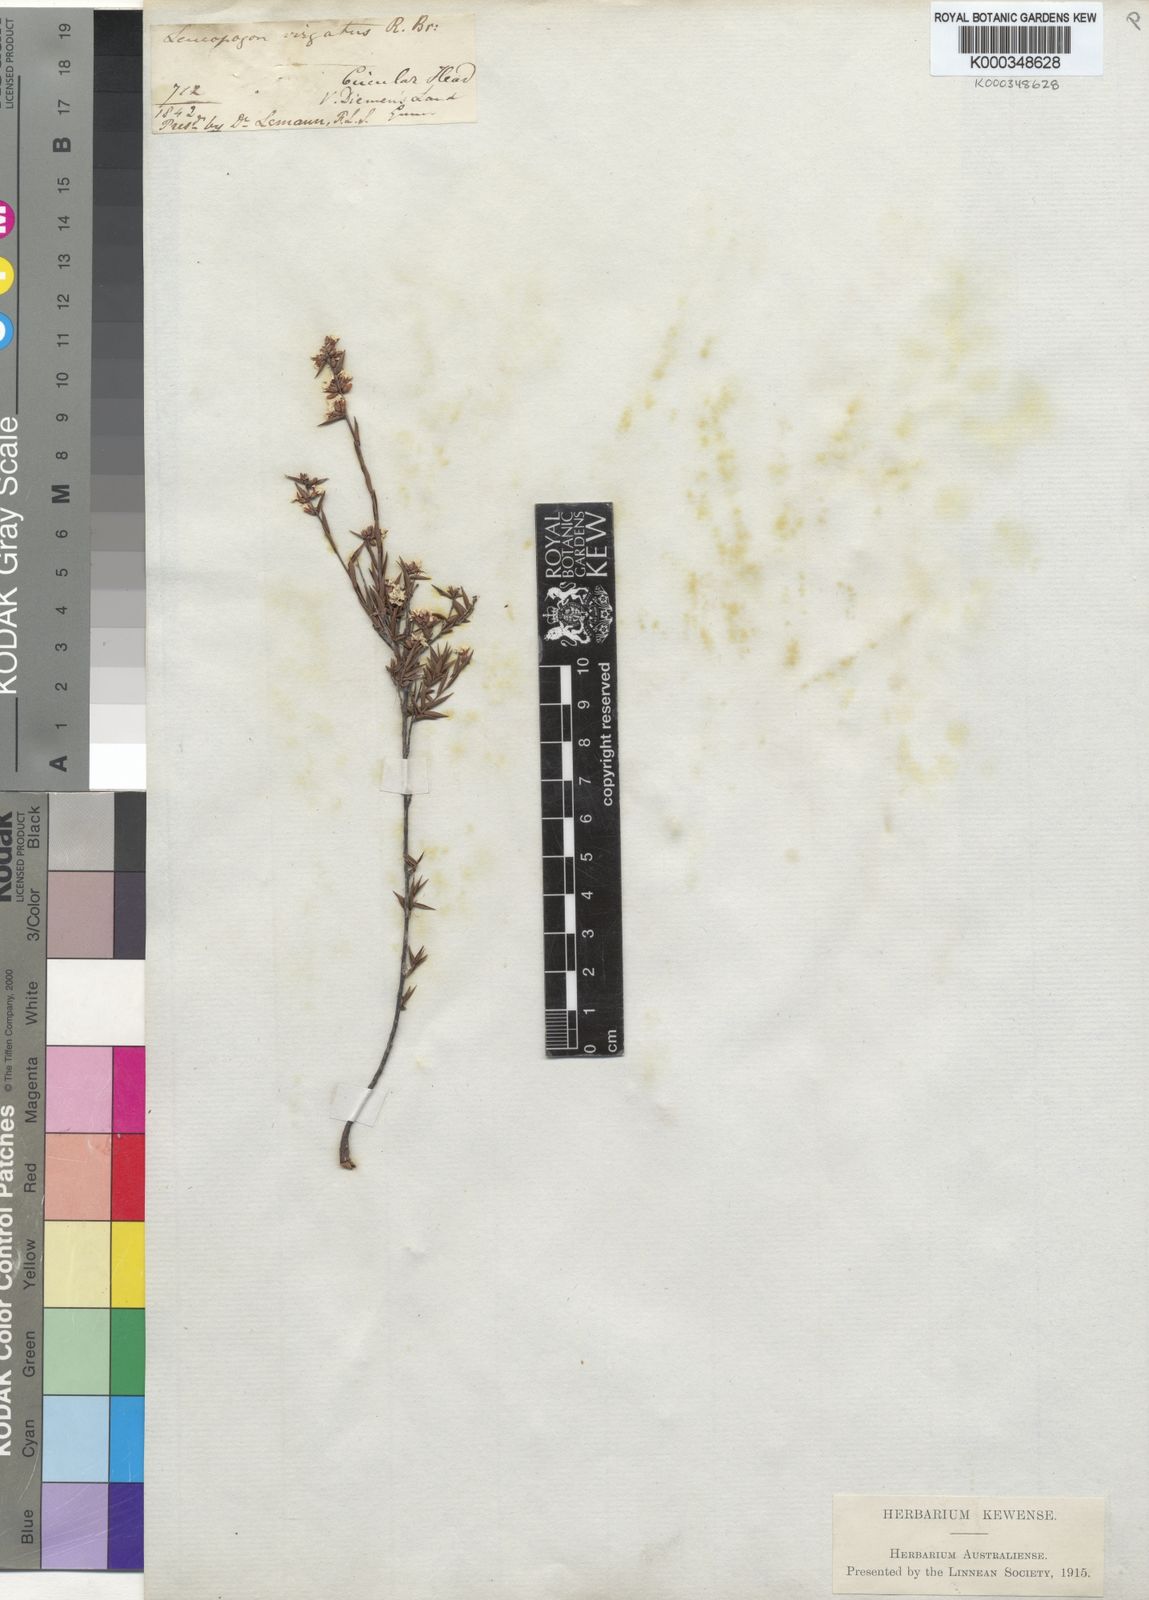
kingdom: Plantae
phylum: Tracheophyta
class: Magnoliopsida
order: Ericales
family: Ericaceae
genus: Leucopogon
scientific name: Leucopogon virgatus
